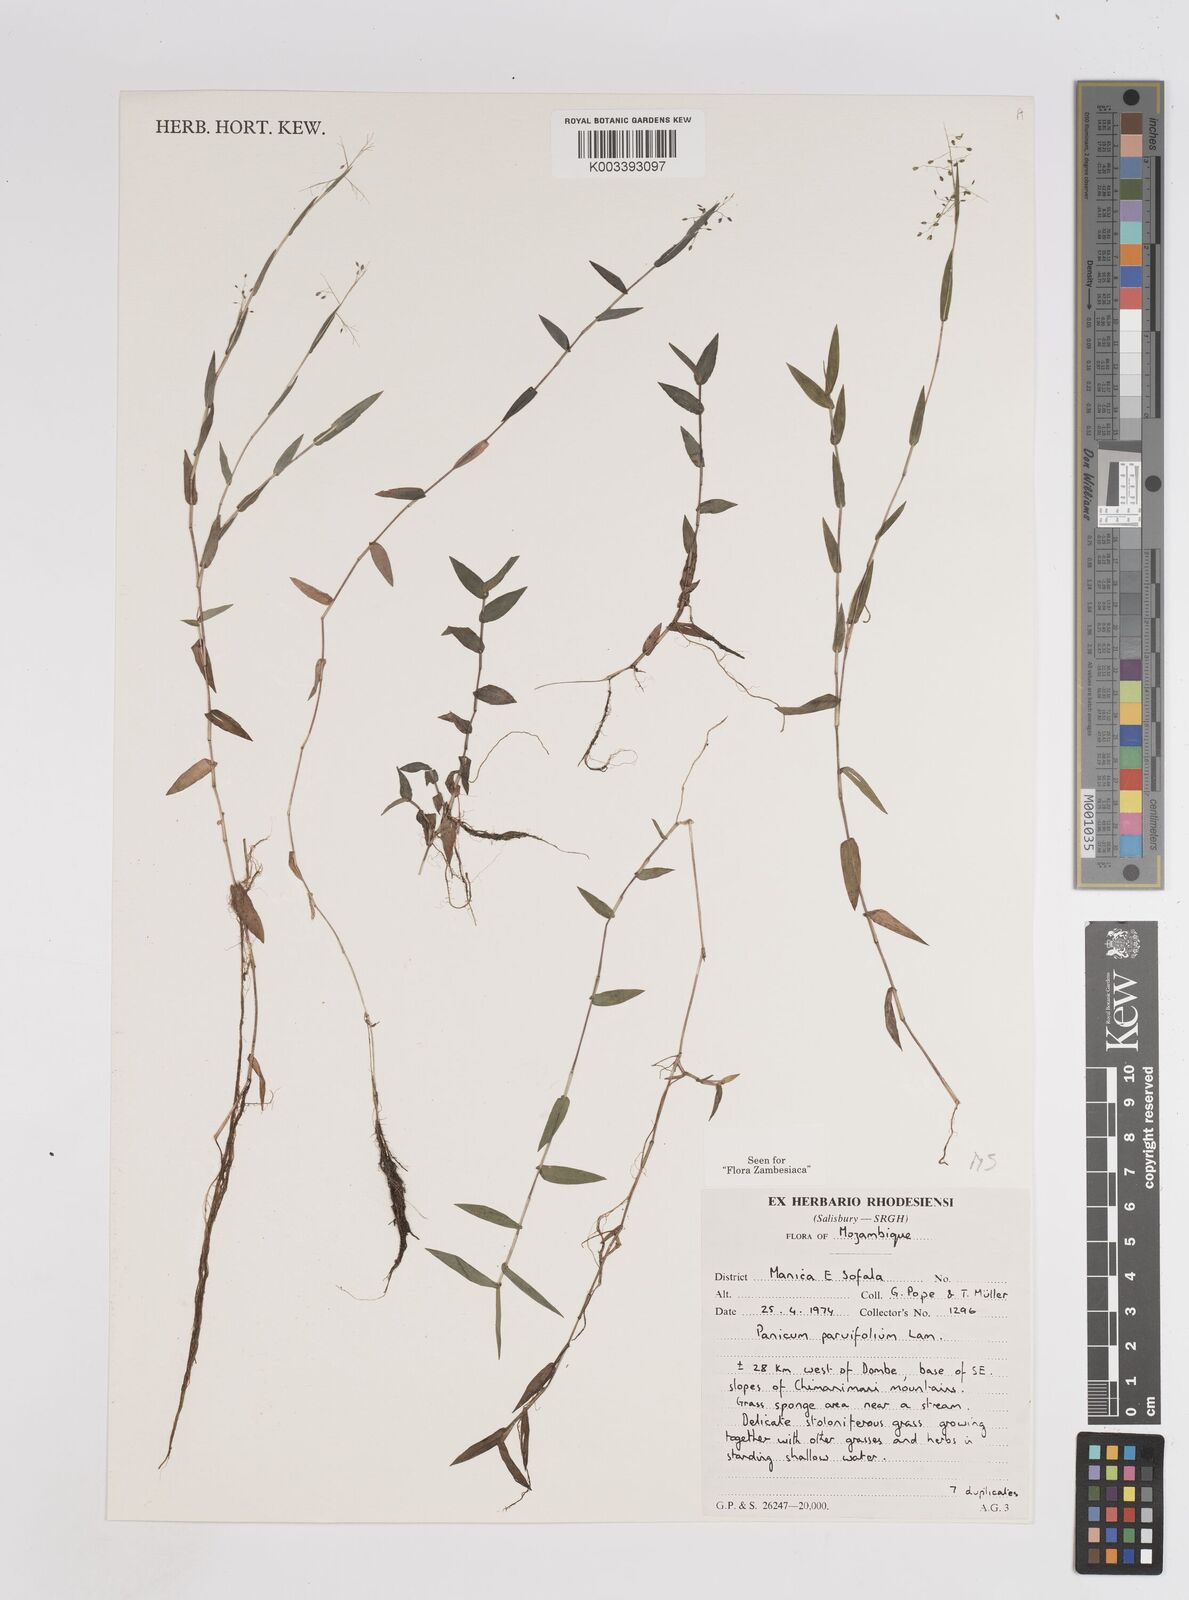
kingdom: Plantae
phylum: Tracheophyta
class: Liliopsida
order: Poales
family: Poaceae
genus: Trichanthecium
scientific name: Trichanthecium parvifolium
